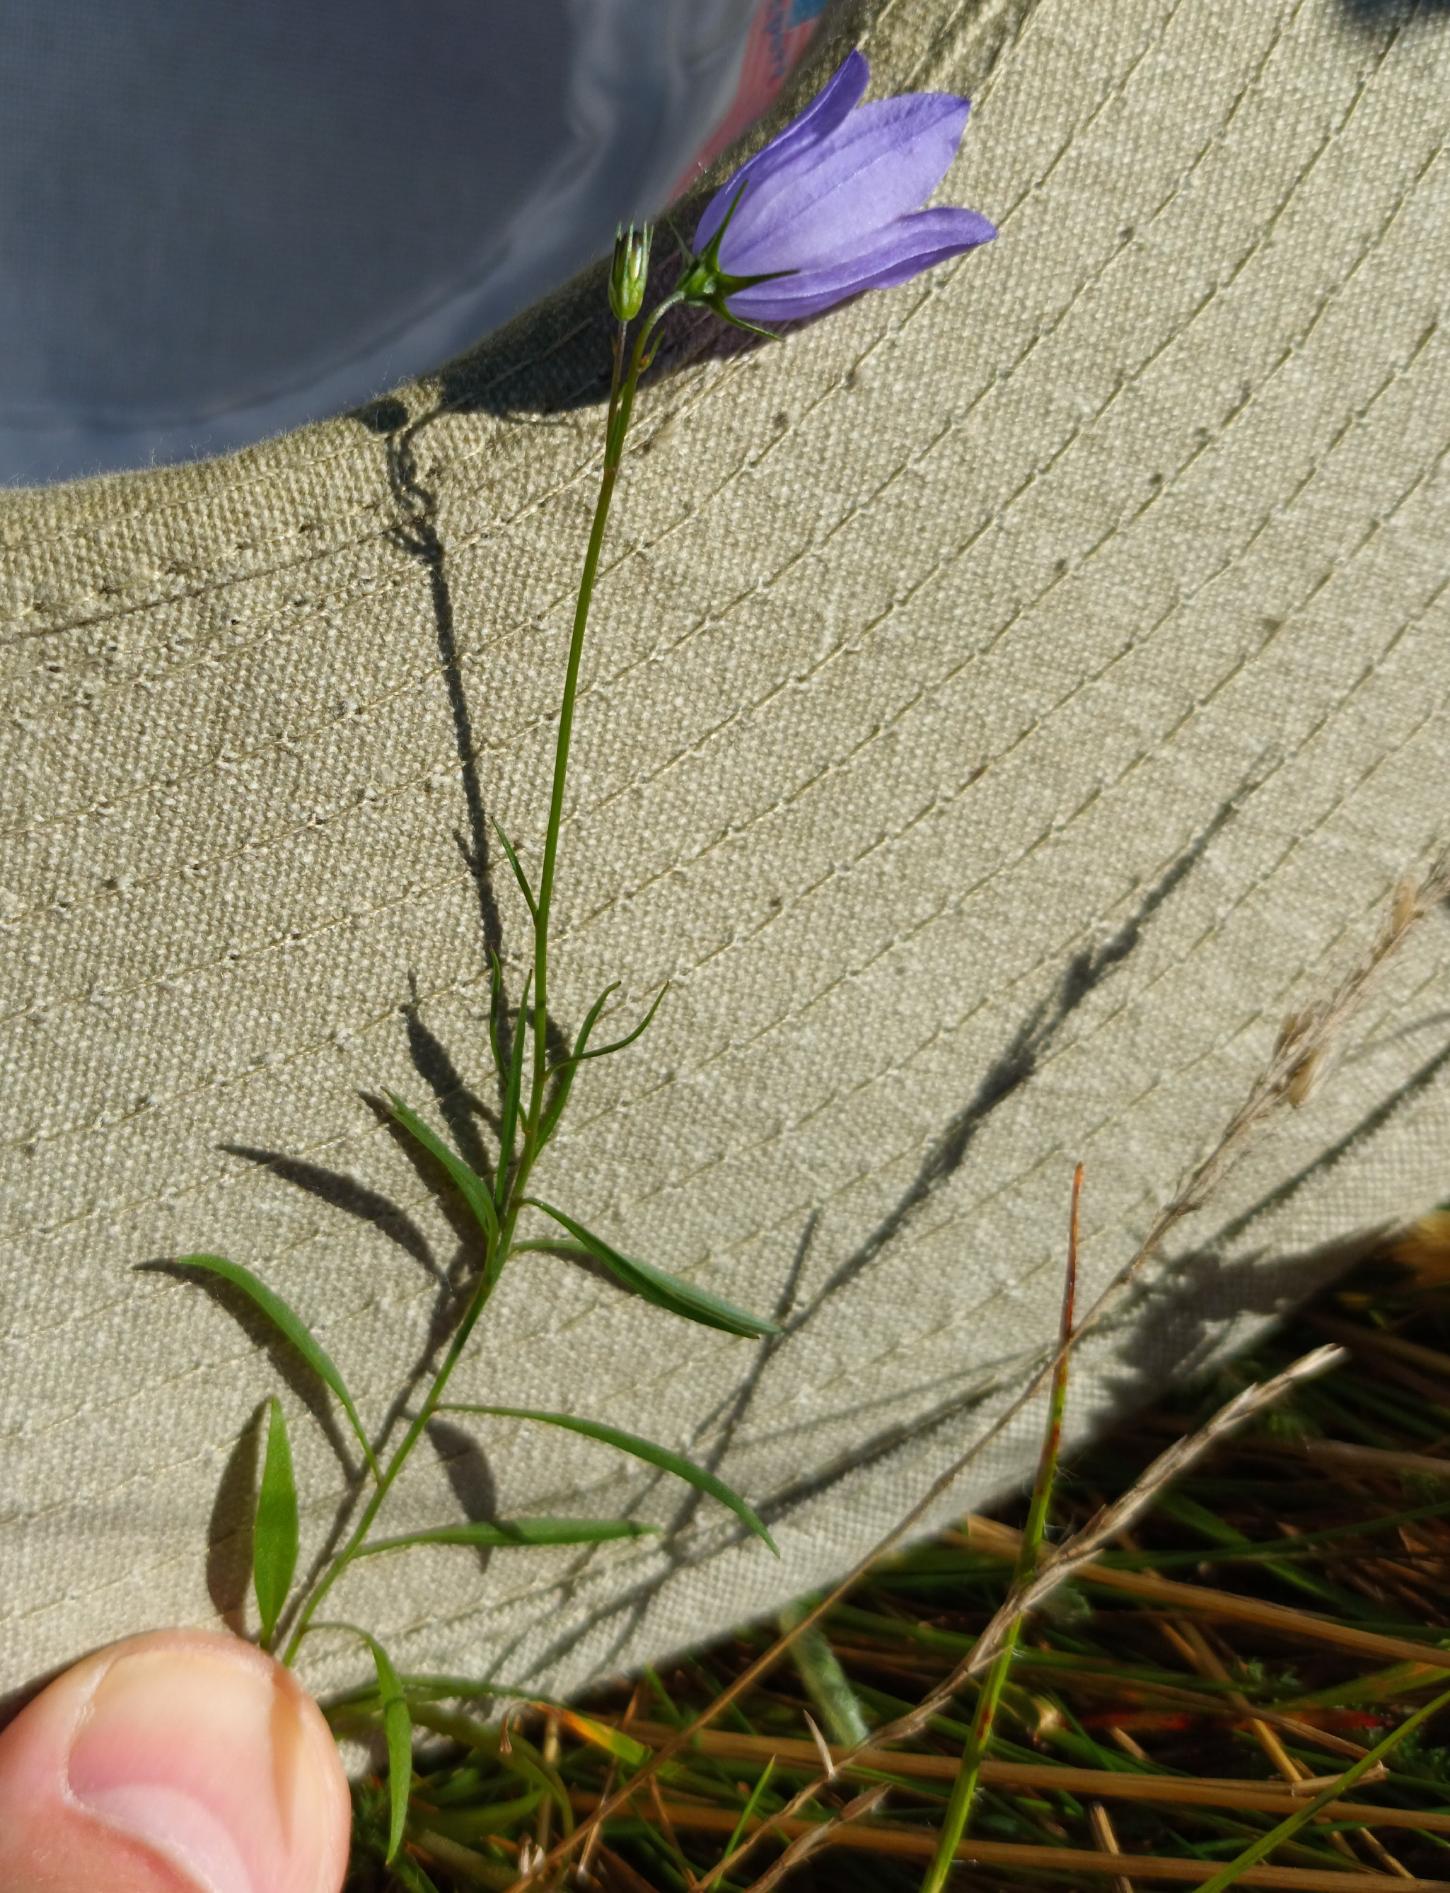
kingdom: Plantae
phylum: Tracheophyta
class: Magnoliopsida
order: Asterales
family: Campanulaceae
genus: Campanula
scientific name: Campanula rotundifolia
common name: Liden klokke
